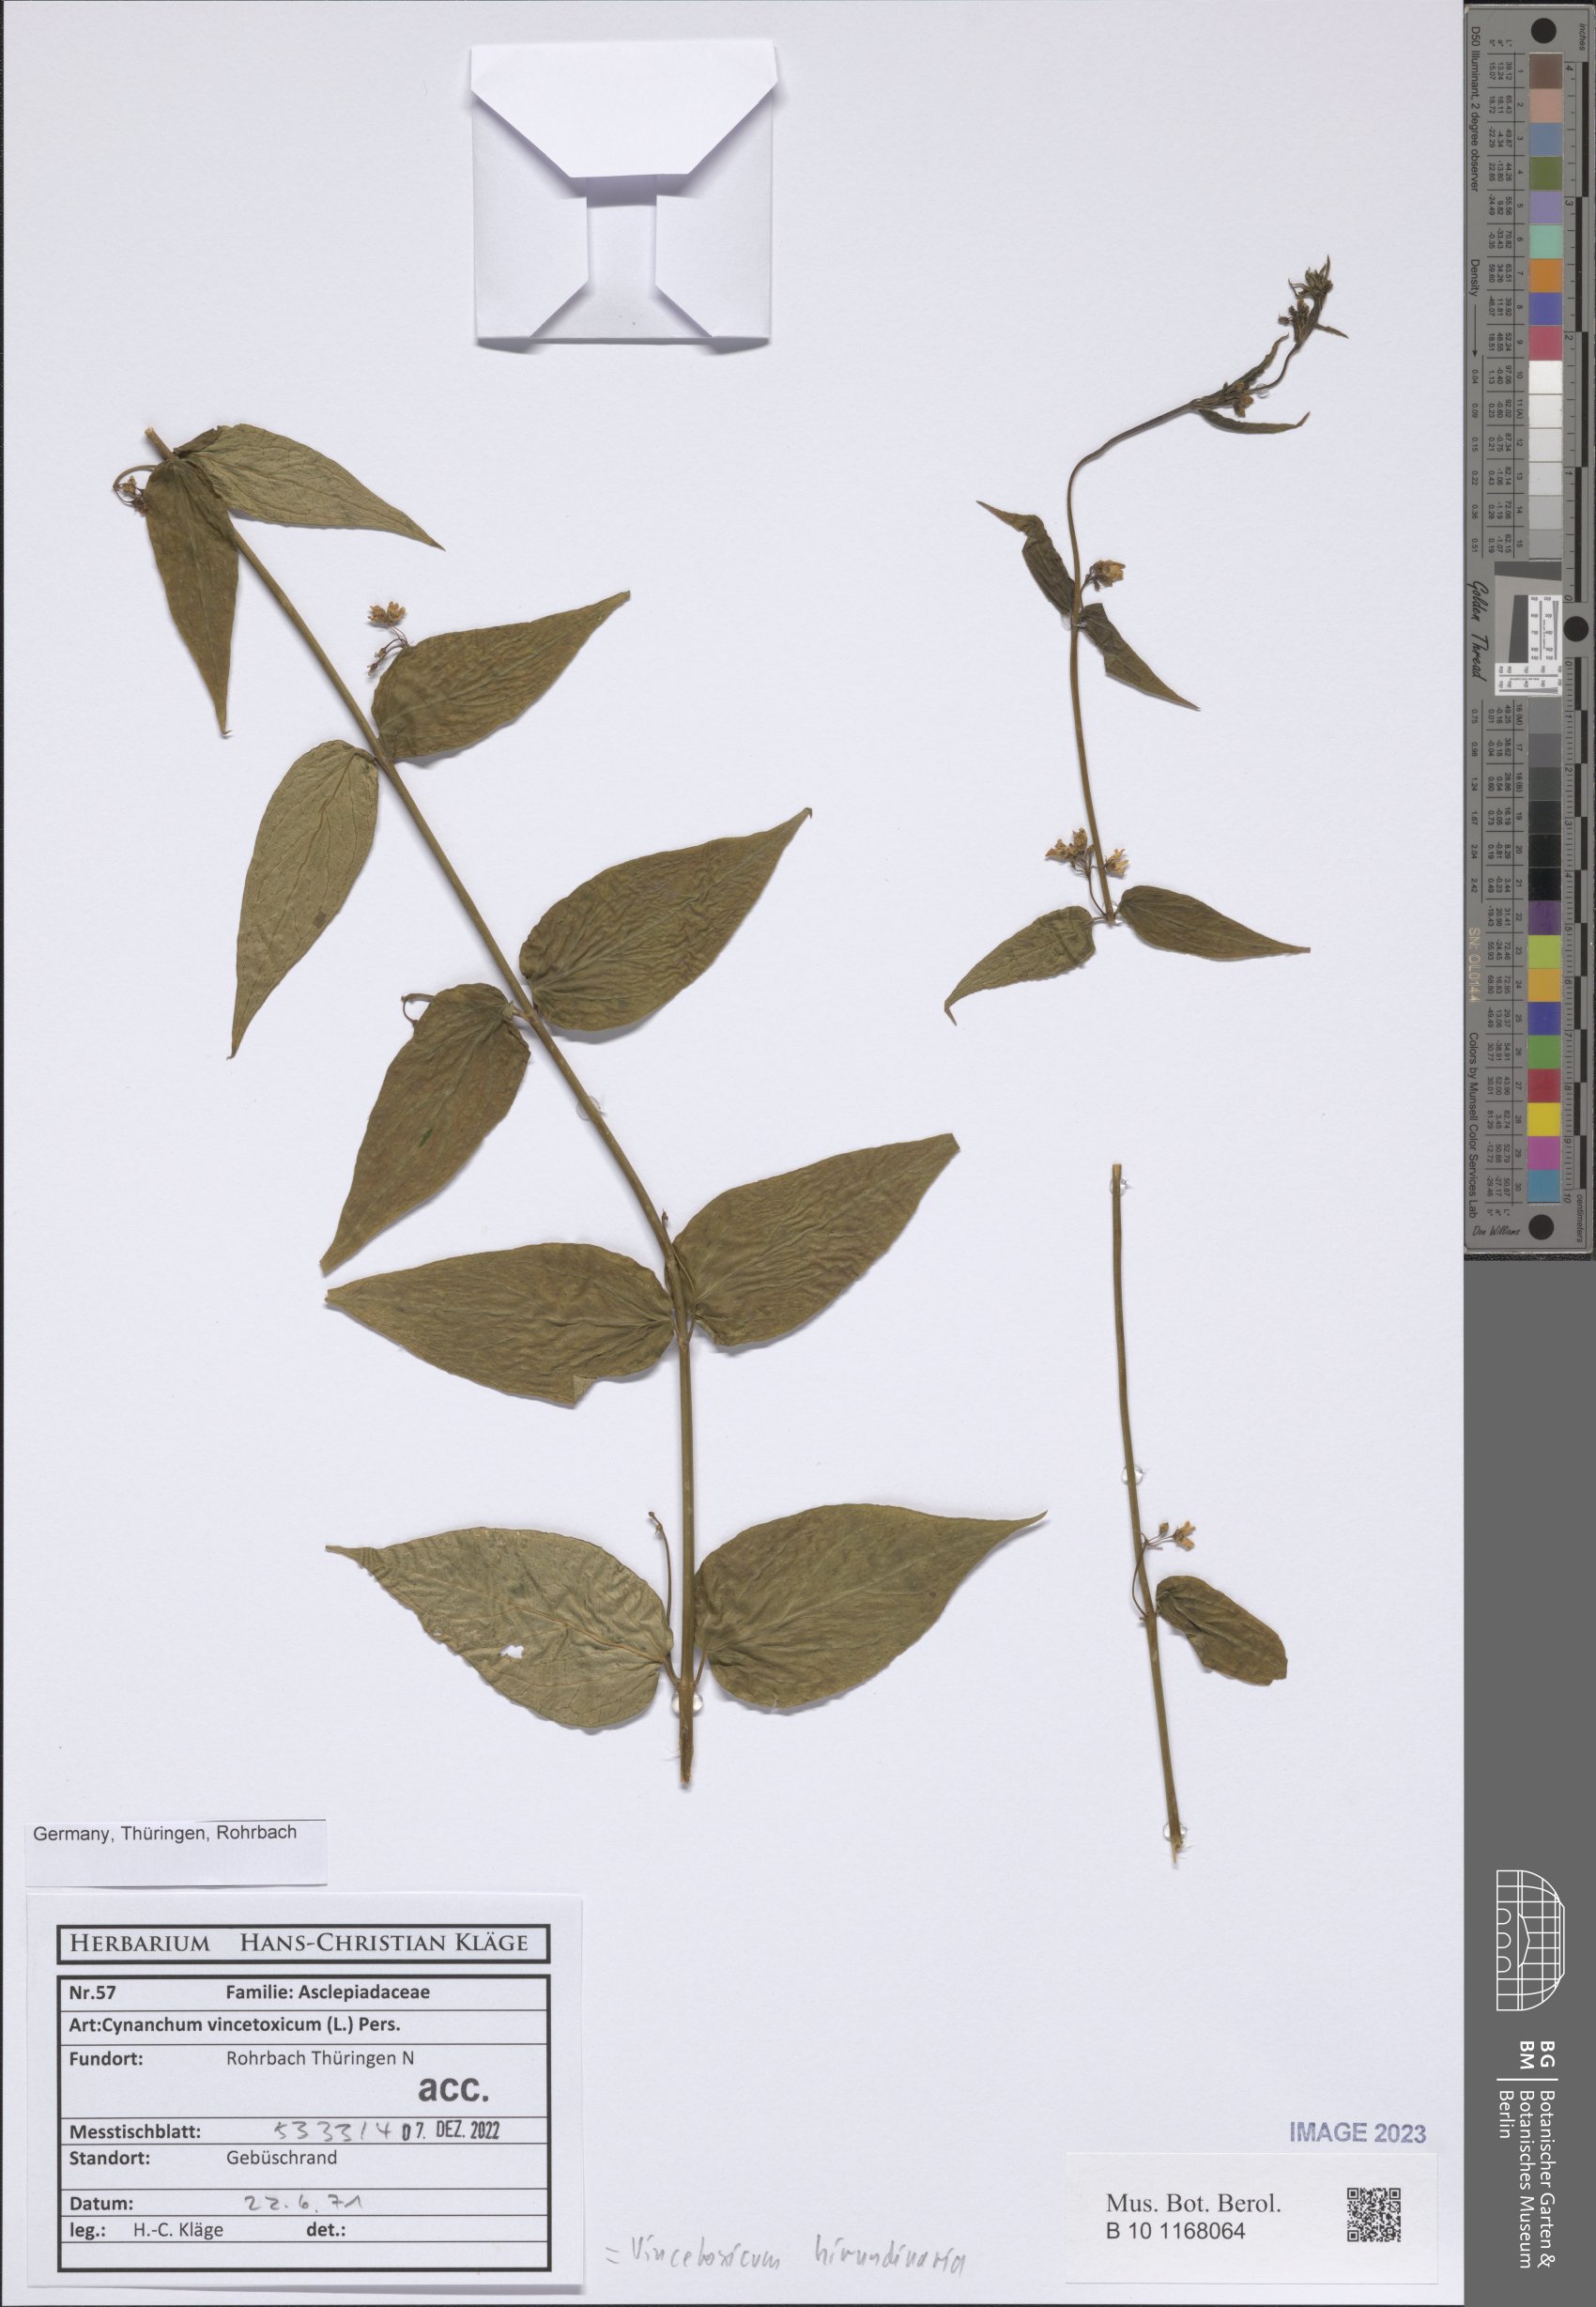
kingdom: Plantae
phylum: Tracheophyta
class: Magnoliopsida
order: Gentianales
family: Apocynaceae
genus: Vincetoxicum
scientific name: Vincetoxicum hirundinaria
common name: White swallowwort
